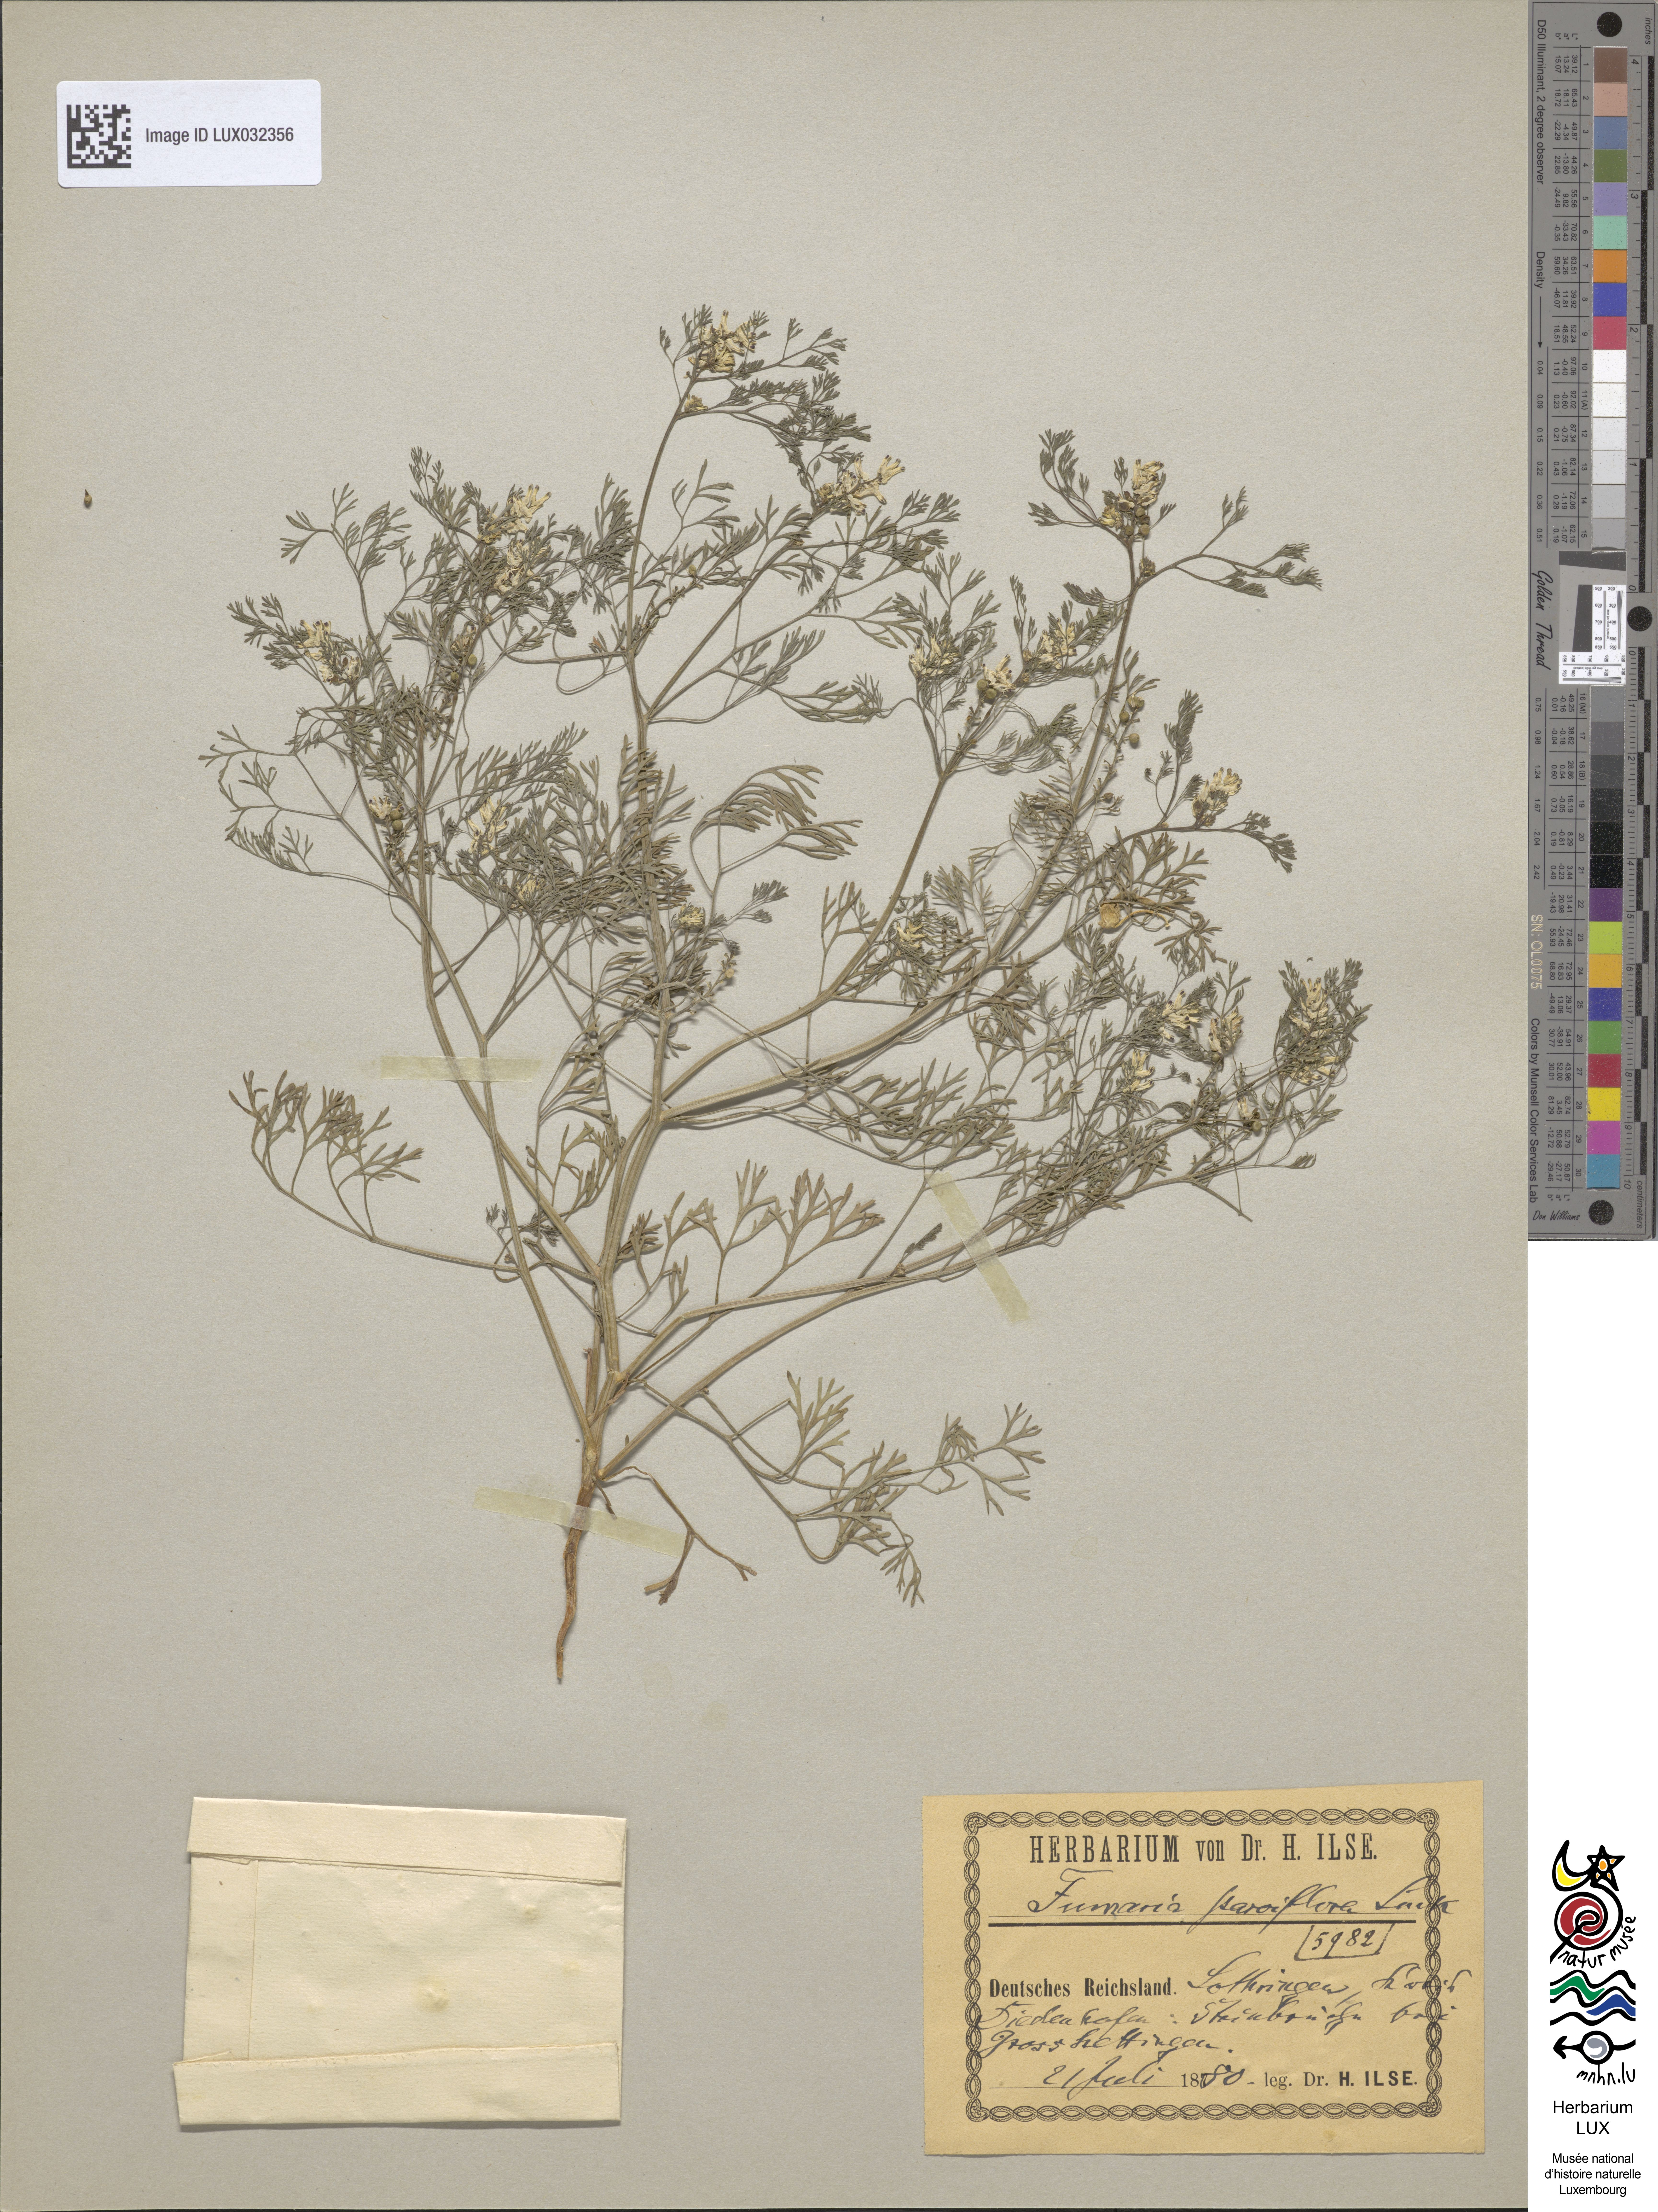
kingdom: Plantae
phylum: Tracheophyta
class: Magnoliopsida
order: Ranunculales
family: Papaveraceae
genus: Fumaria
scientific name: Fumaria parviflora
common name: Fine-leaved fumitory
